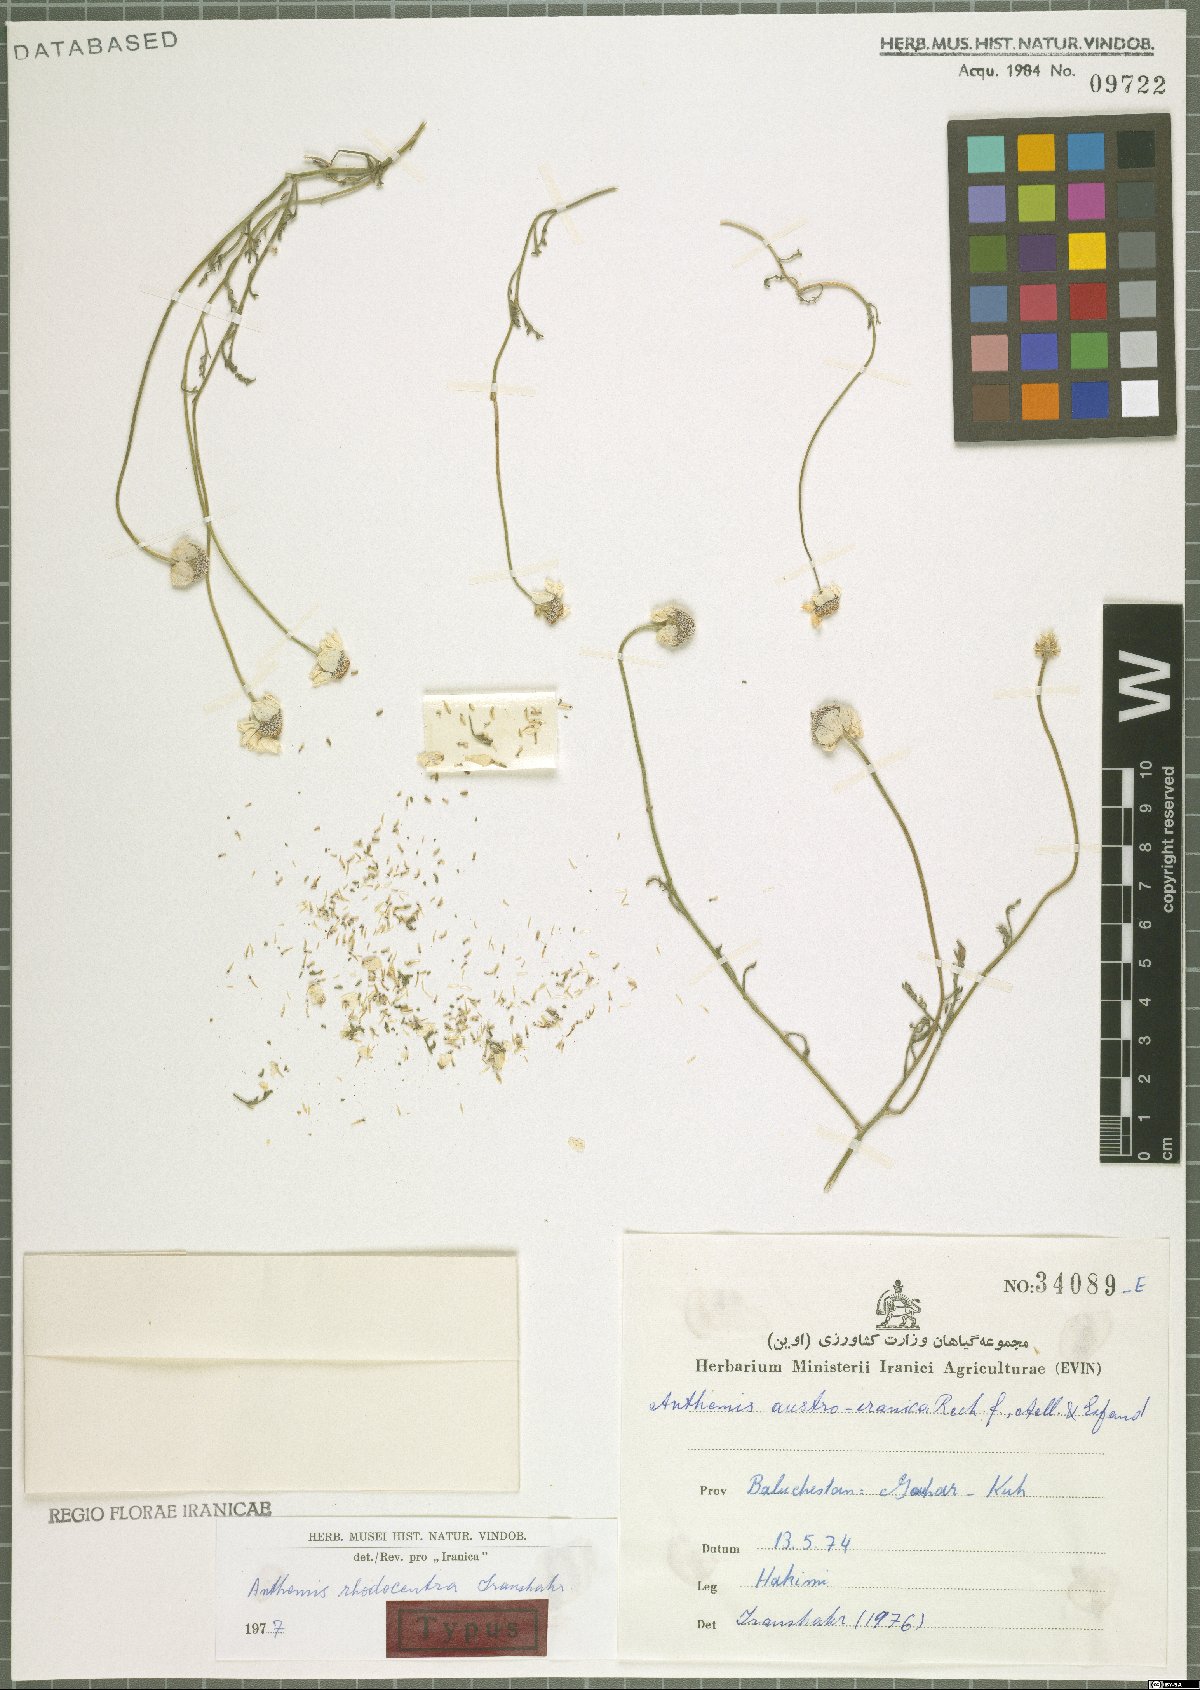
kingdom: Plantae
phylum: Tracheophyta
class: Magnoliopsida
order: Asterales
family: Asteraceae
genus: Anthemis
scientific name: Anthemis rhodocentra
